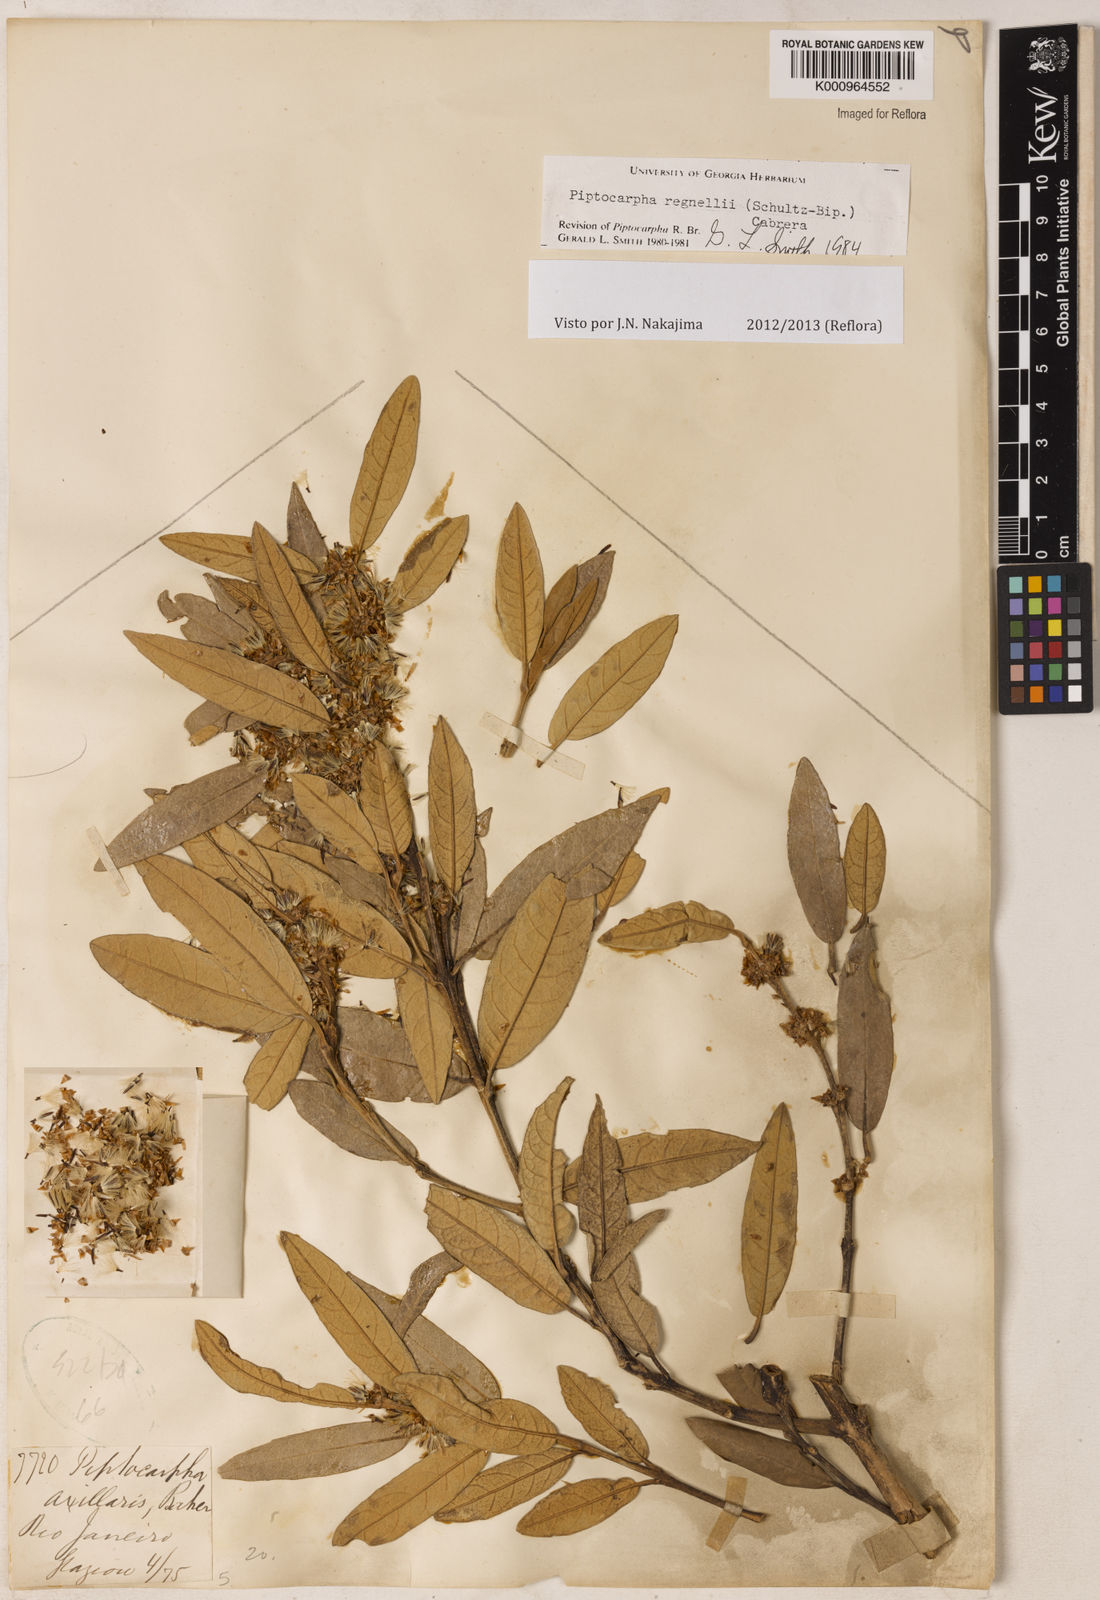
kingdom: Plantae
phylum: Tracheophyta
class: Magnoliopsida
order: Asterales
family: Asteraceae
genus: Piptocarpha
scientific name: Piptocarpha regnellii
